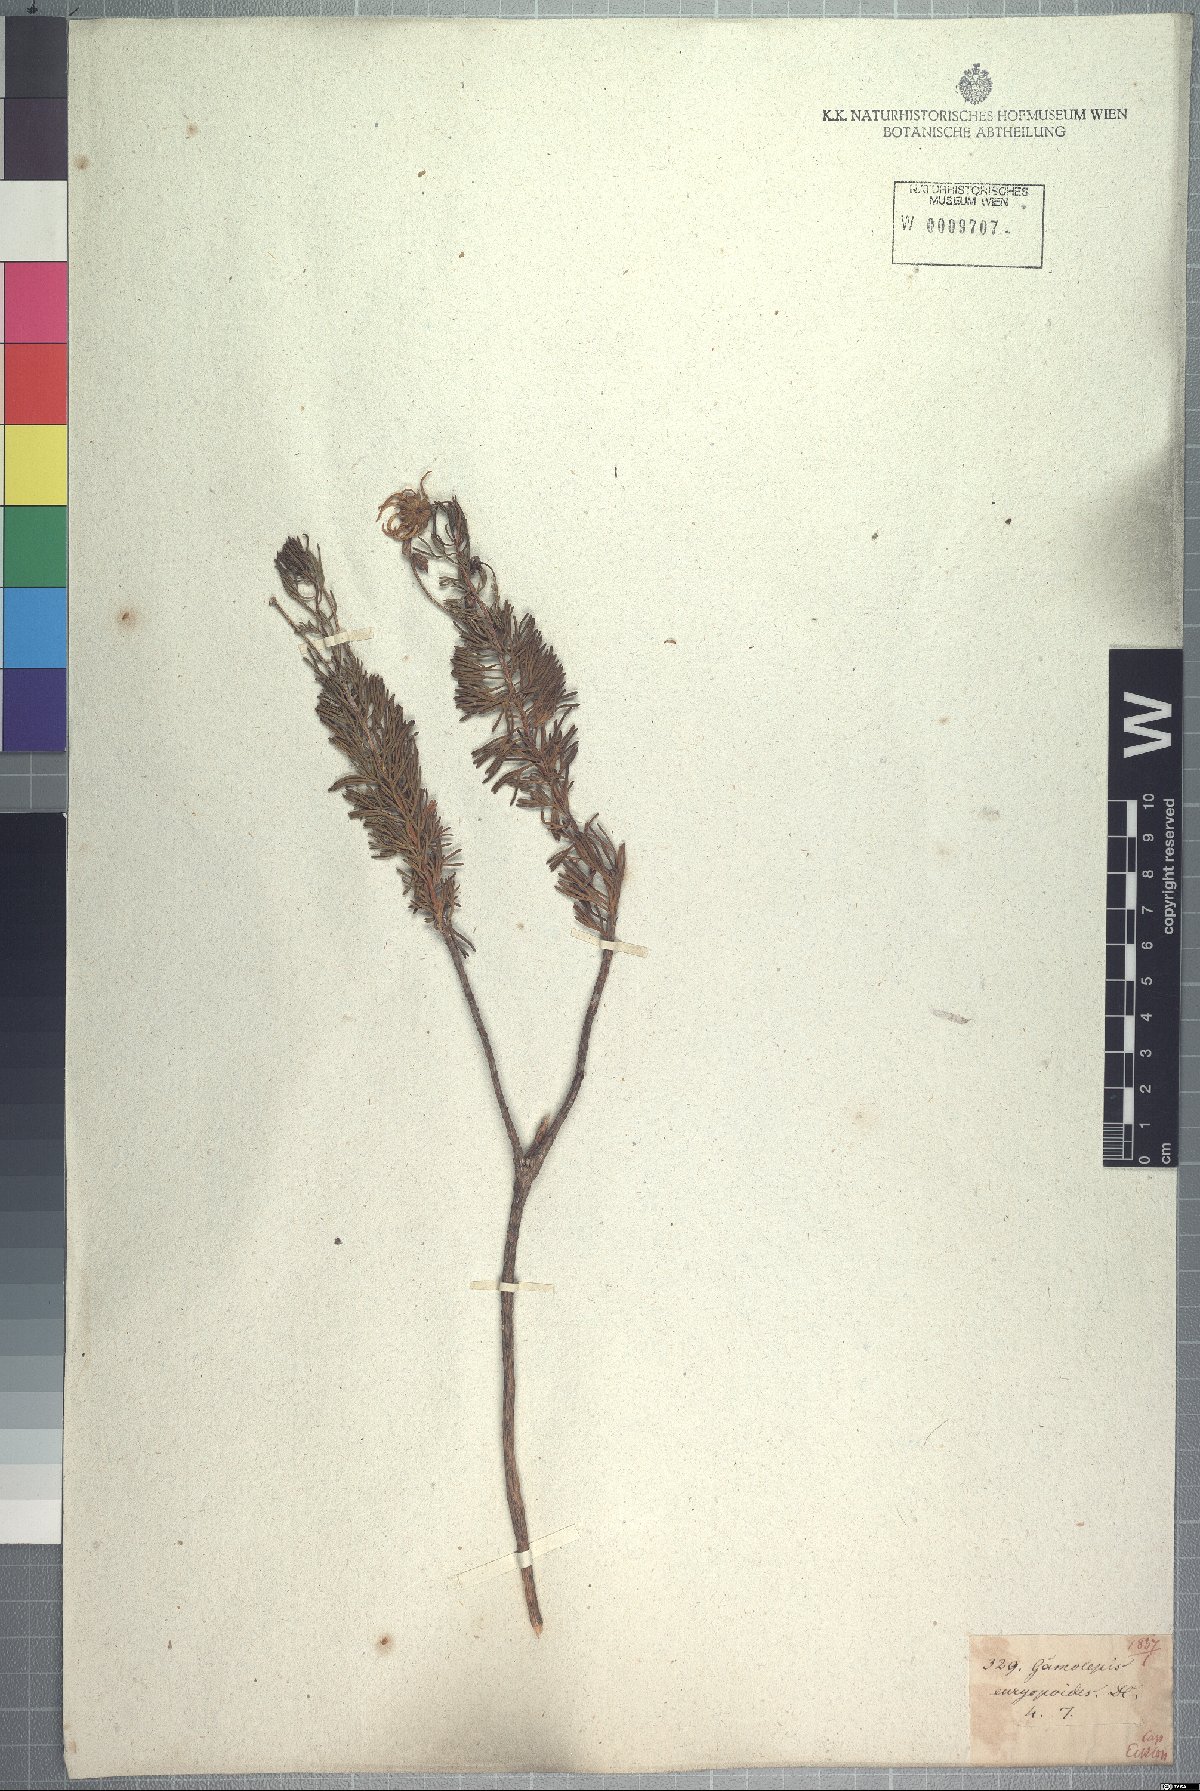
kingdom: Plantae
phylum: Tracheophyta
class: Magnoliopsida
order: Asterales
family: Asteraceae
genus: Euryops
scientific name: Euryops euryopoides
